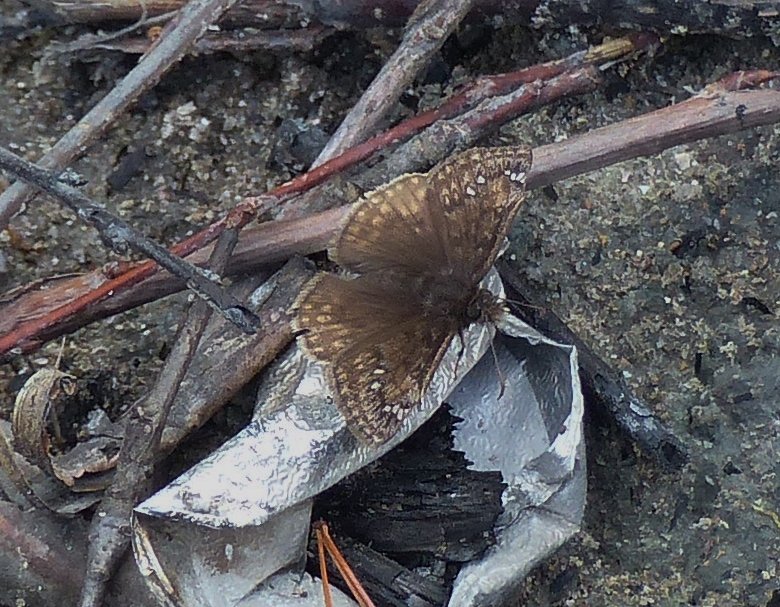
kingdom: Animalia
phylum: Arthropoda
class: Insecta
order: Lepidoptera
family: Hesperiidae
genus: Gesta
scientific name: Gesta
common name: Juvenal's Duskywing
